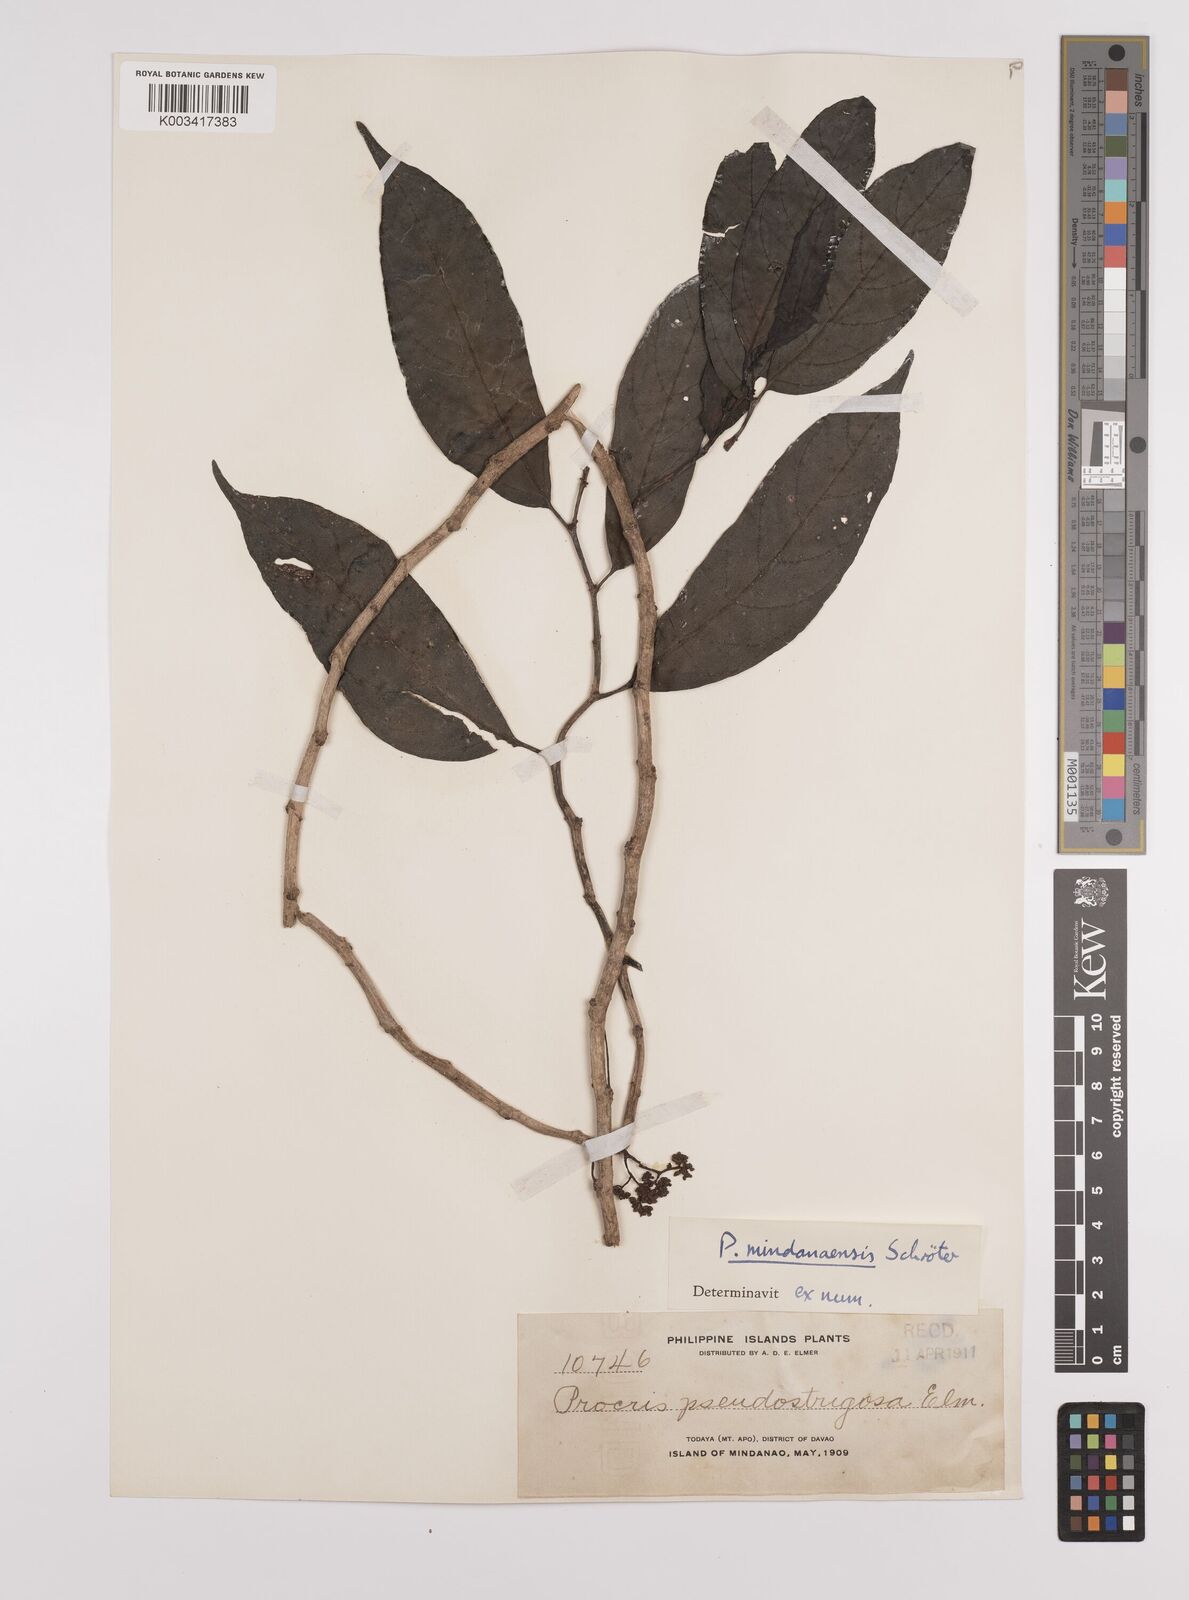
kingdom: Plantae
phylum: Tracheophyta
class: Magnoliopsida
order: Rosales
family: Urticaceae
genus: Procris
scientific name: Procris mindanaensis
